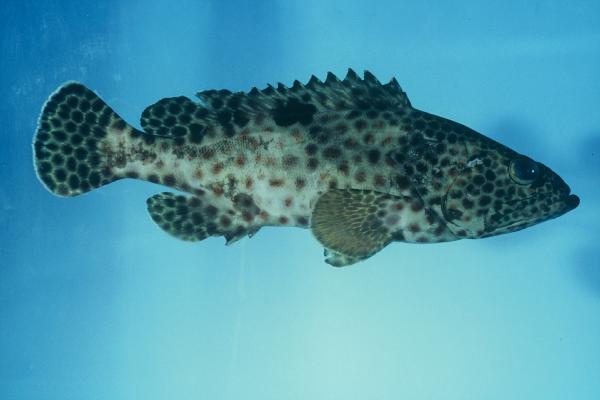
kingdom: Animalia
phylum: Chordata
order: Perciformes
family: Serranidae
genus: Epinephelus
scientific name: Epinephelus tauvina
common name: Greasy grouper
